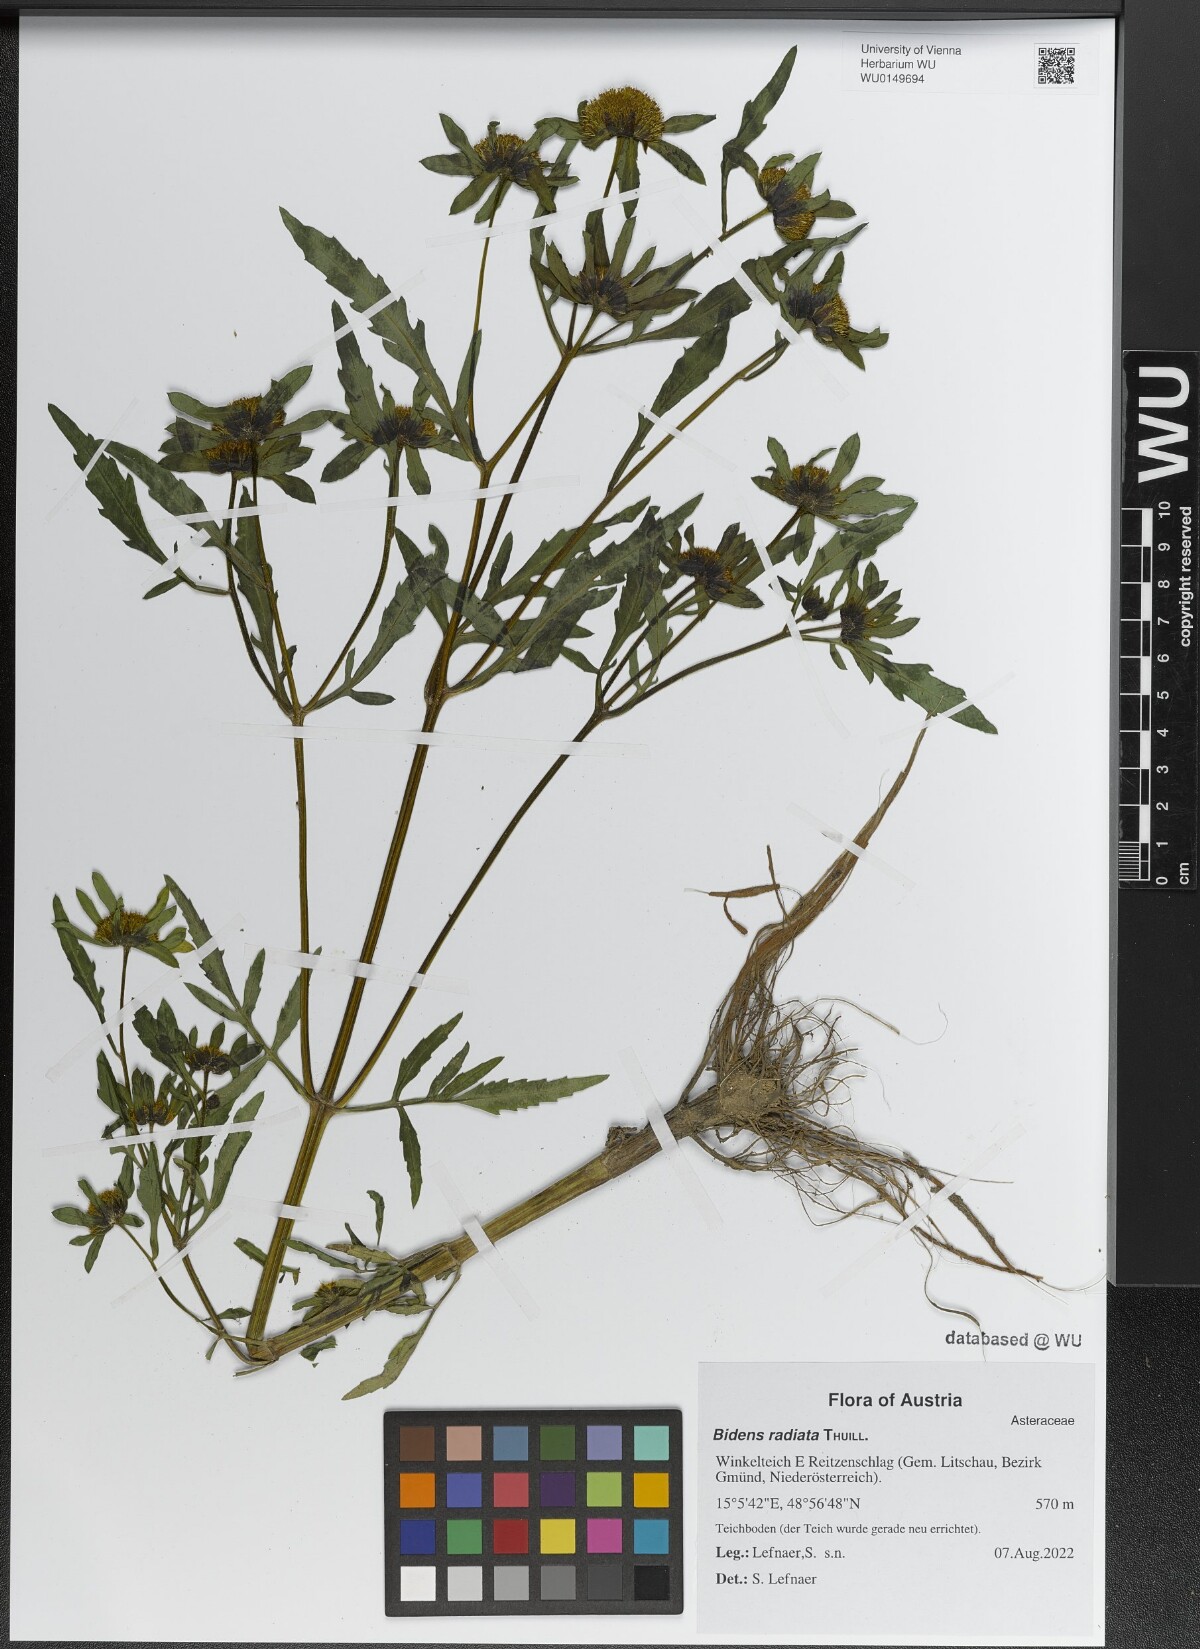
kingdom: Plantae
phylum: Tracheophyta
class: Magnoliopsida
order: Asterales
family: Asteraceae
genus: Bidens
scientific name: Bidens radiata
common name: Radiating bur-marigold
